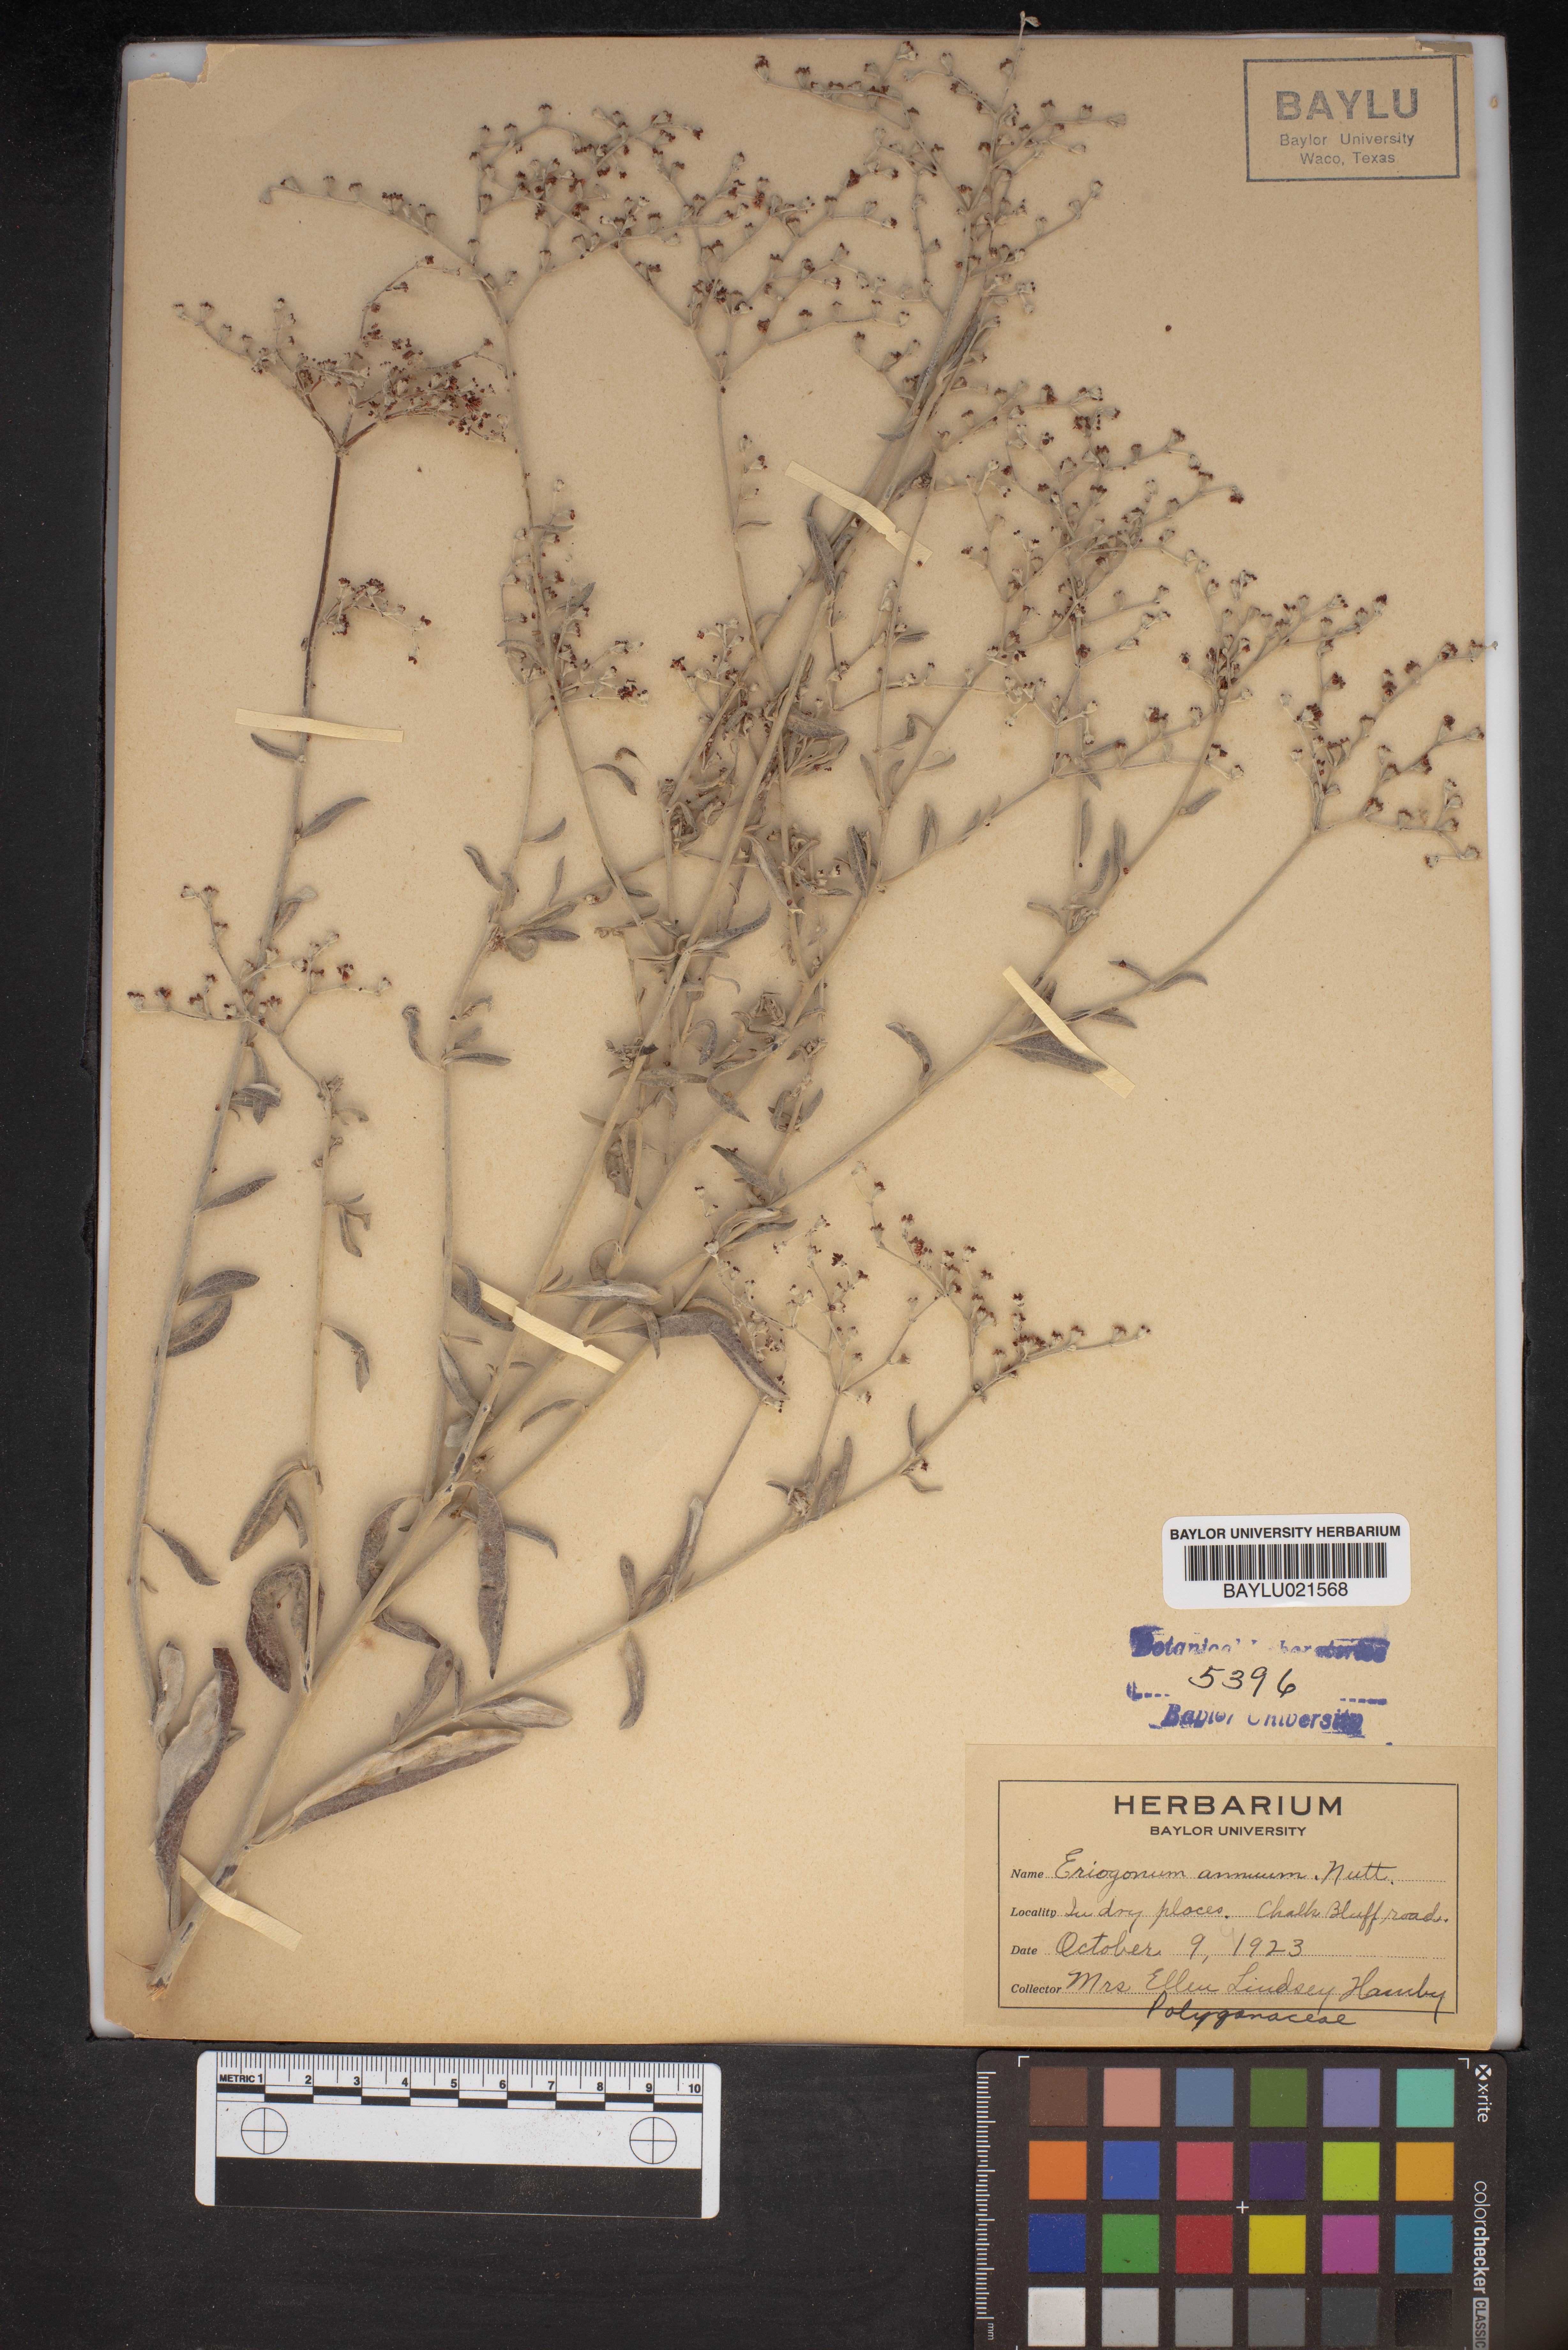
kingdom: Plantae
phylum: Tracheophyta
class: Magnoliopsida
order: Caryophyllales
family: Polygonaceae
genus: Eriogonum
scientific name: Eriogonum annuum
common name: Annual wild buckwheat
